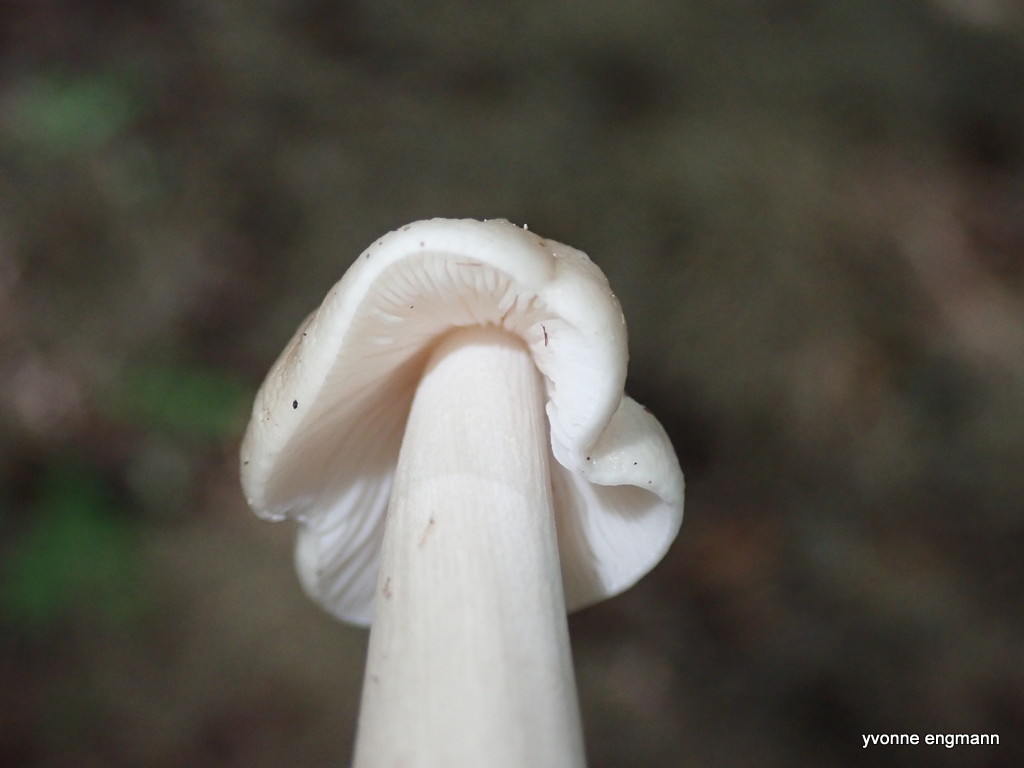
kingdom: Fungi
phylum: Basidiomycota
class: Agaricomycetes
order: Agaricales
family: Physalacriaceae
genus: Hymenopellis
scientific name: Hymenopellis radicata
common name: almindelig pælerodshat
